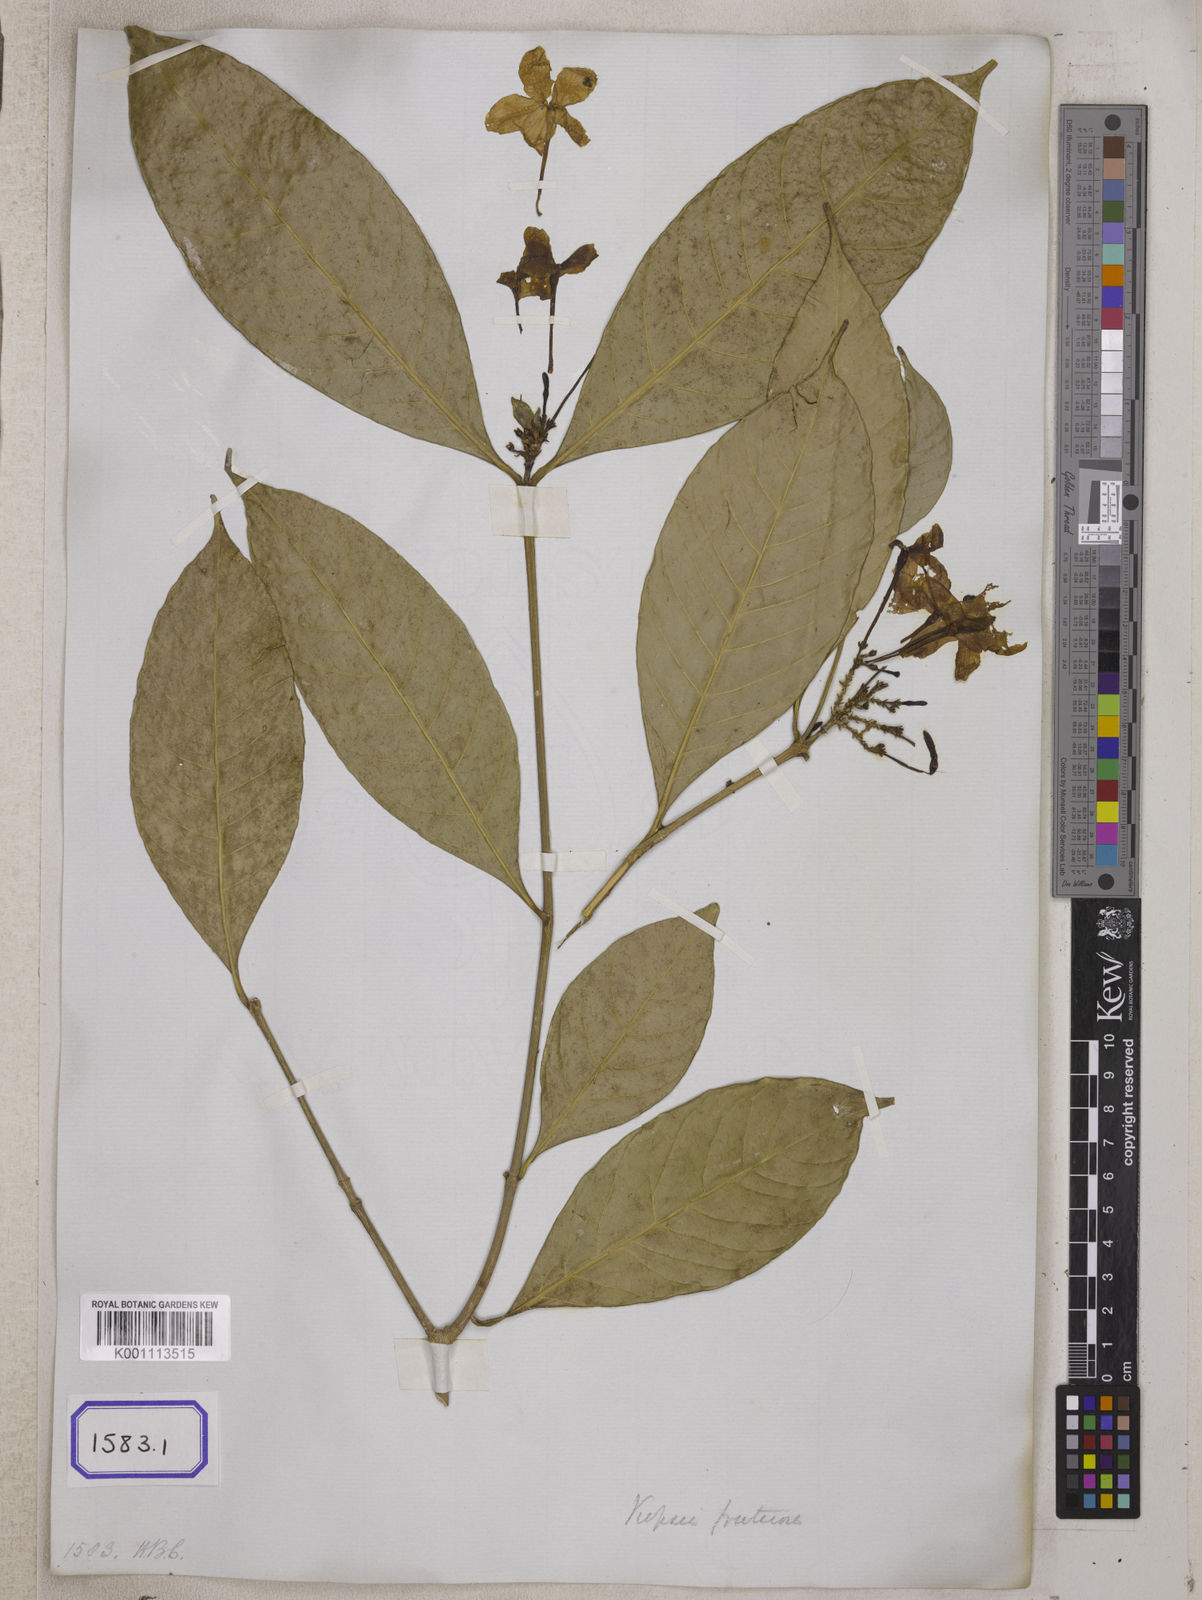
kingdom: Plantae
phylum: Tracheophyta
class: Magnoliopsida
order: Gentianales
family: Apocynaceae
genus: Kopsia
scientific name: Kopsia fruticosa
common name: Shrub-vinca
